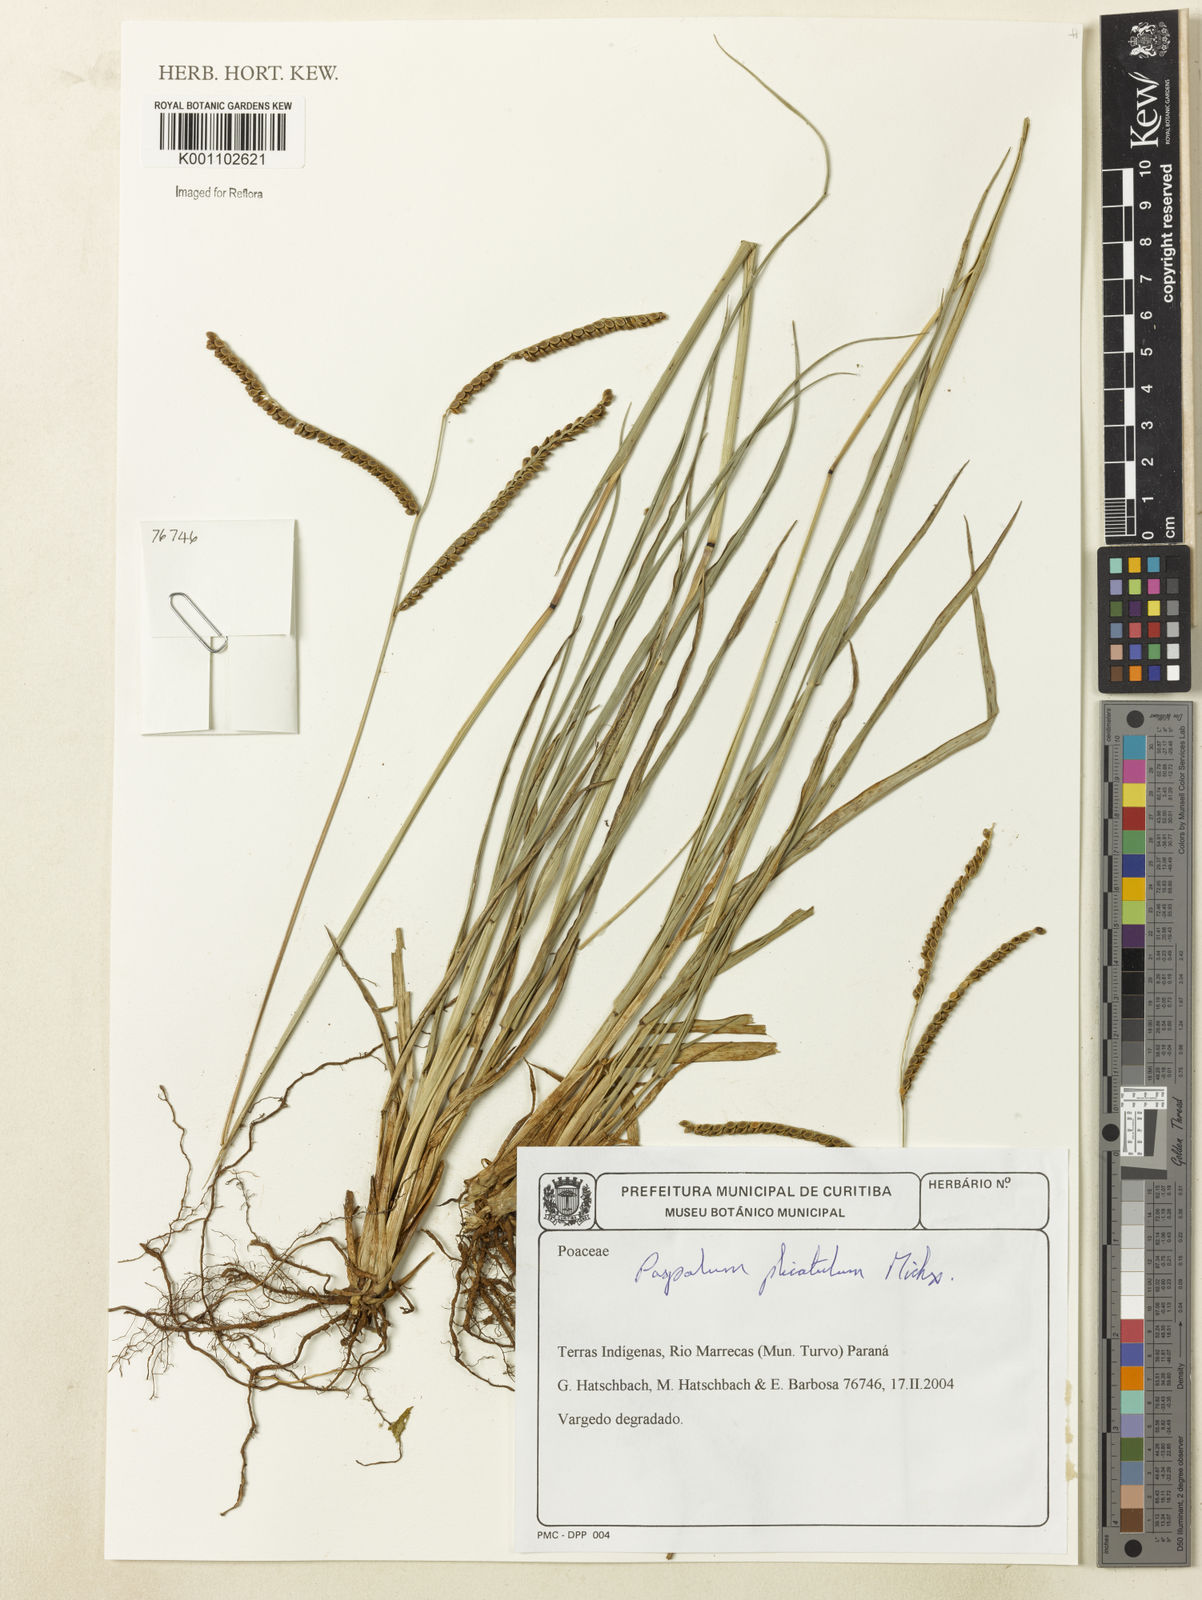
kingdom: Plantae
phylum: Tracheophyta
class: Liliopsida
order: Poales
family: Poaceae
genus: Paspalum
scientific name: Paspalum
